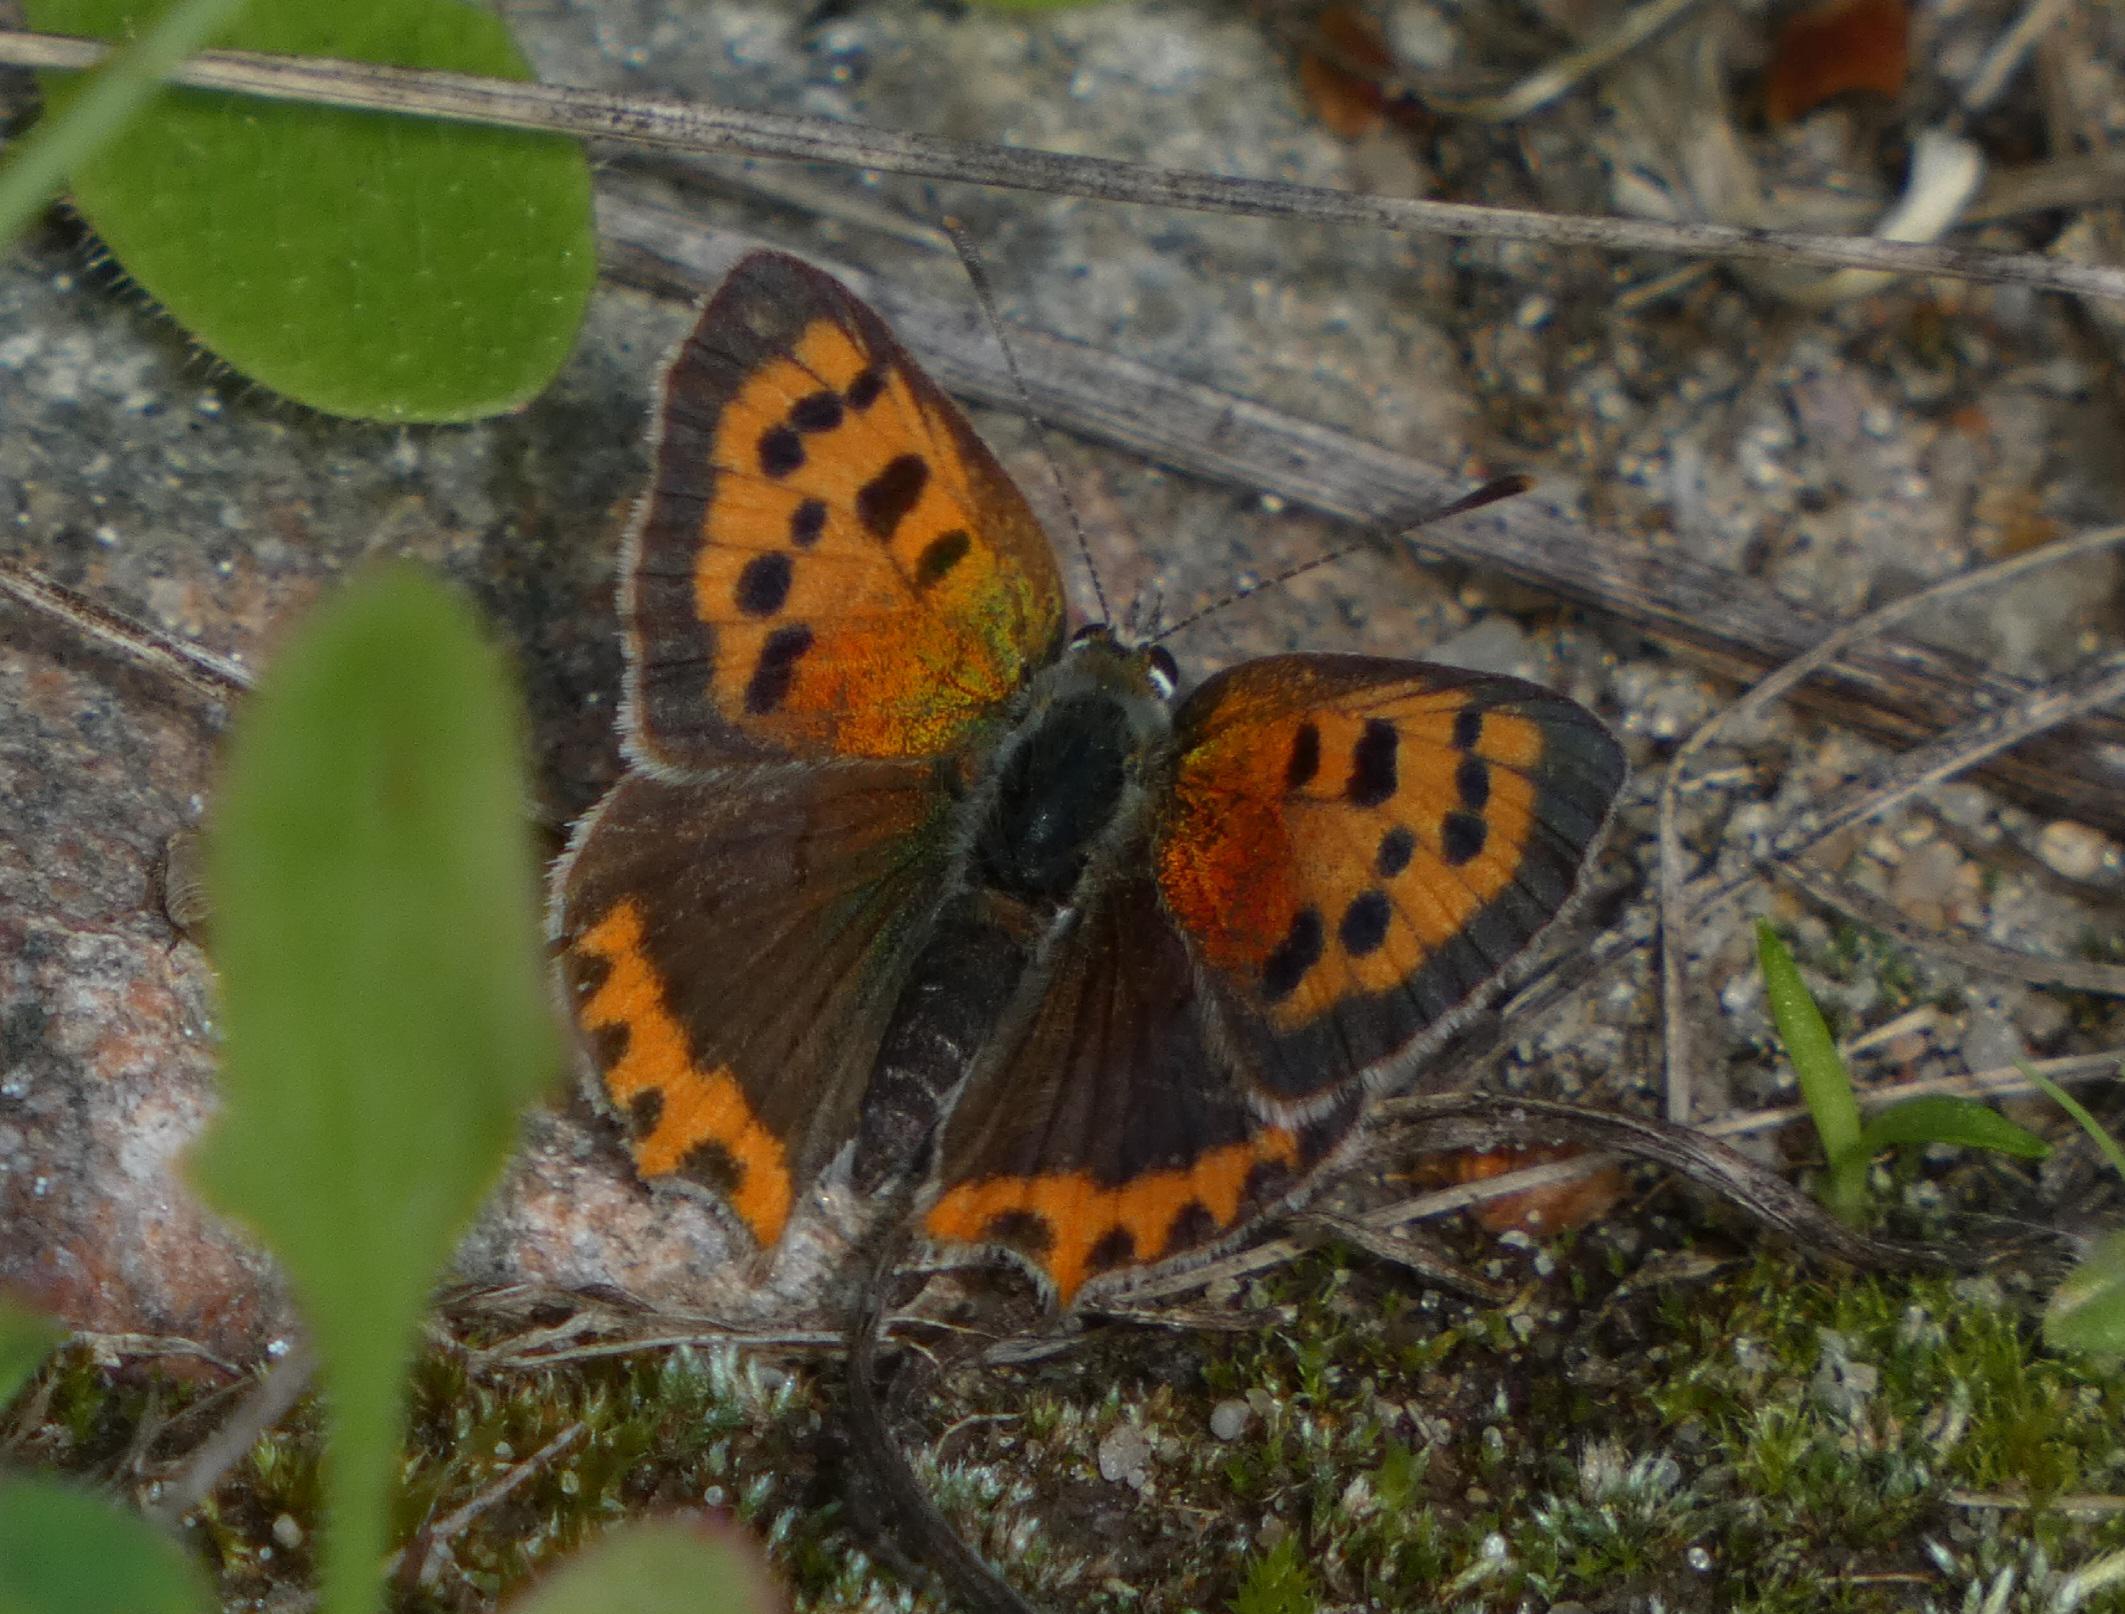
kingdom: Animalia
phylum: Arthropoda
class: Insecta
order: Lepidoptera
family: Lycaenidae
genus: Lycaena
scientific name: Lycaena phlaeas
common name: Lille ildfugl
